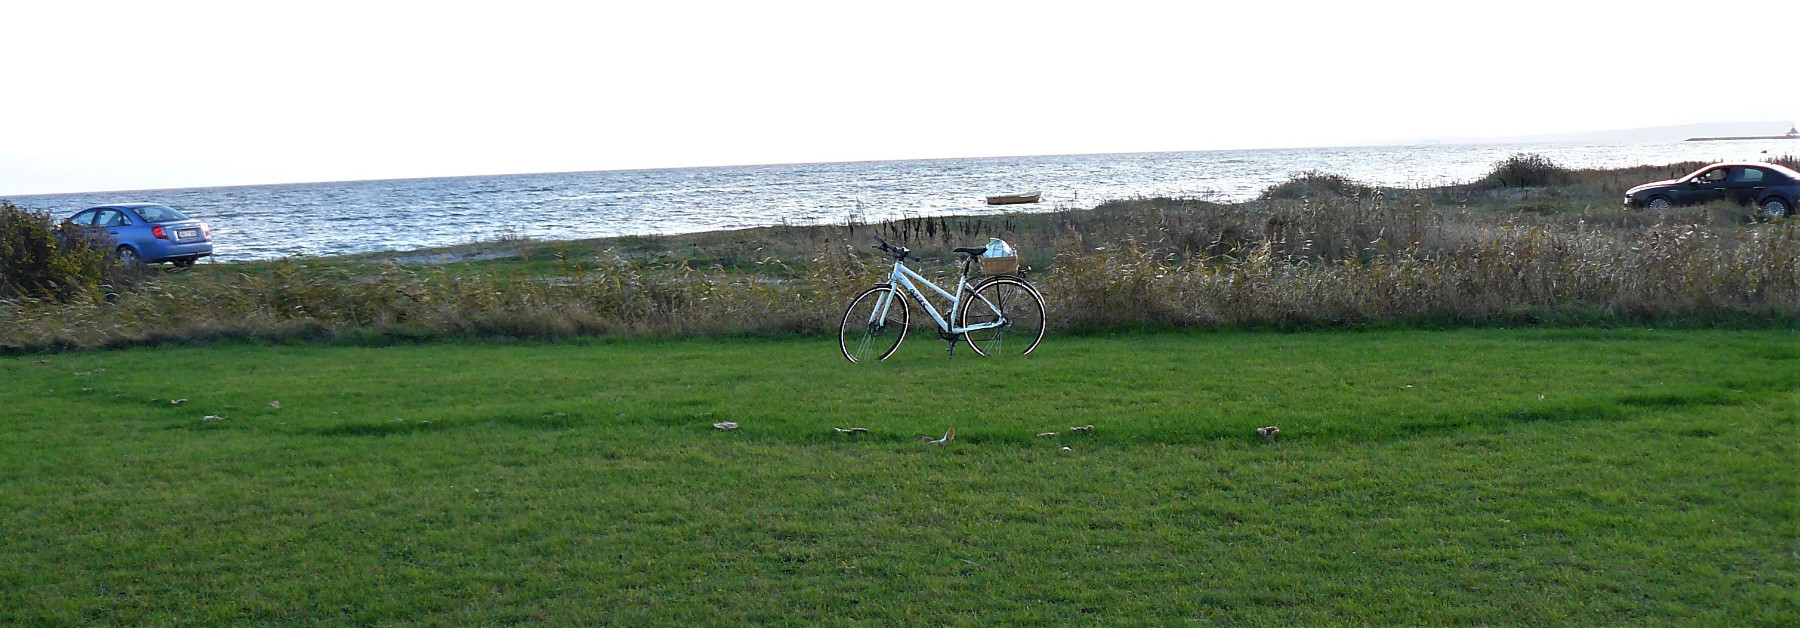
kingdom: Fungi
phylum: Basidiomycota
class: Agaricomycetes
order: Agaricales
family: Tricholomataceae
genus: Lepista
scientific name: Lepista personata
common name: bleg hekseringshat
